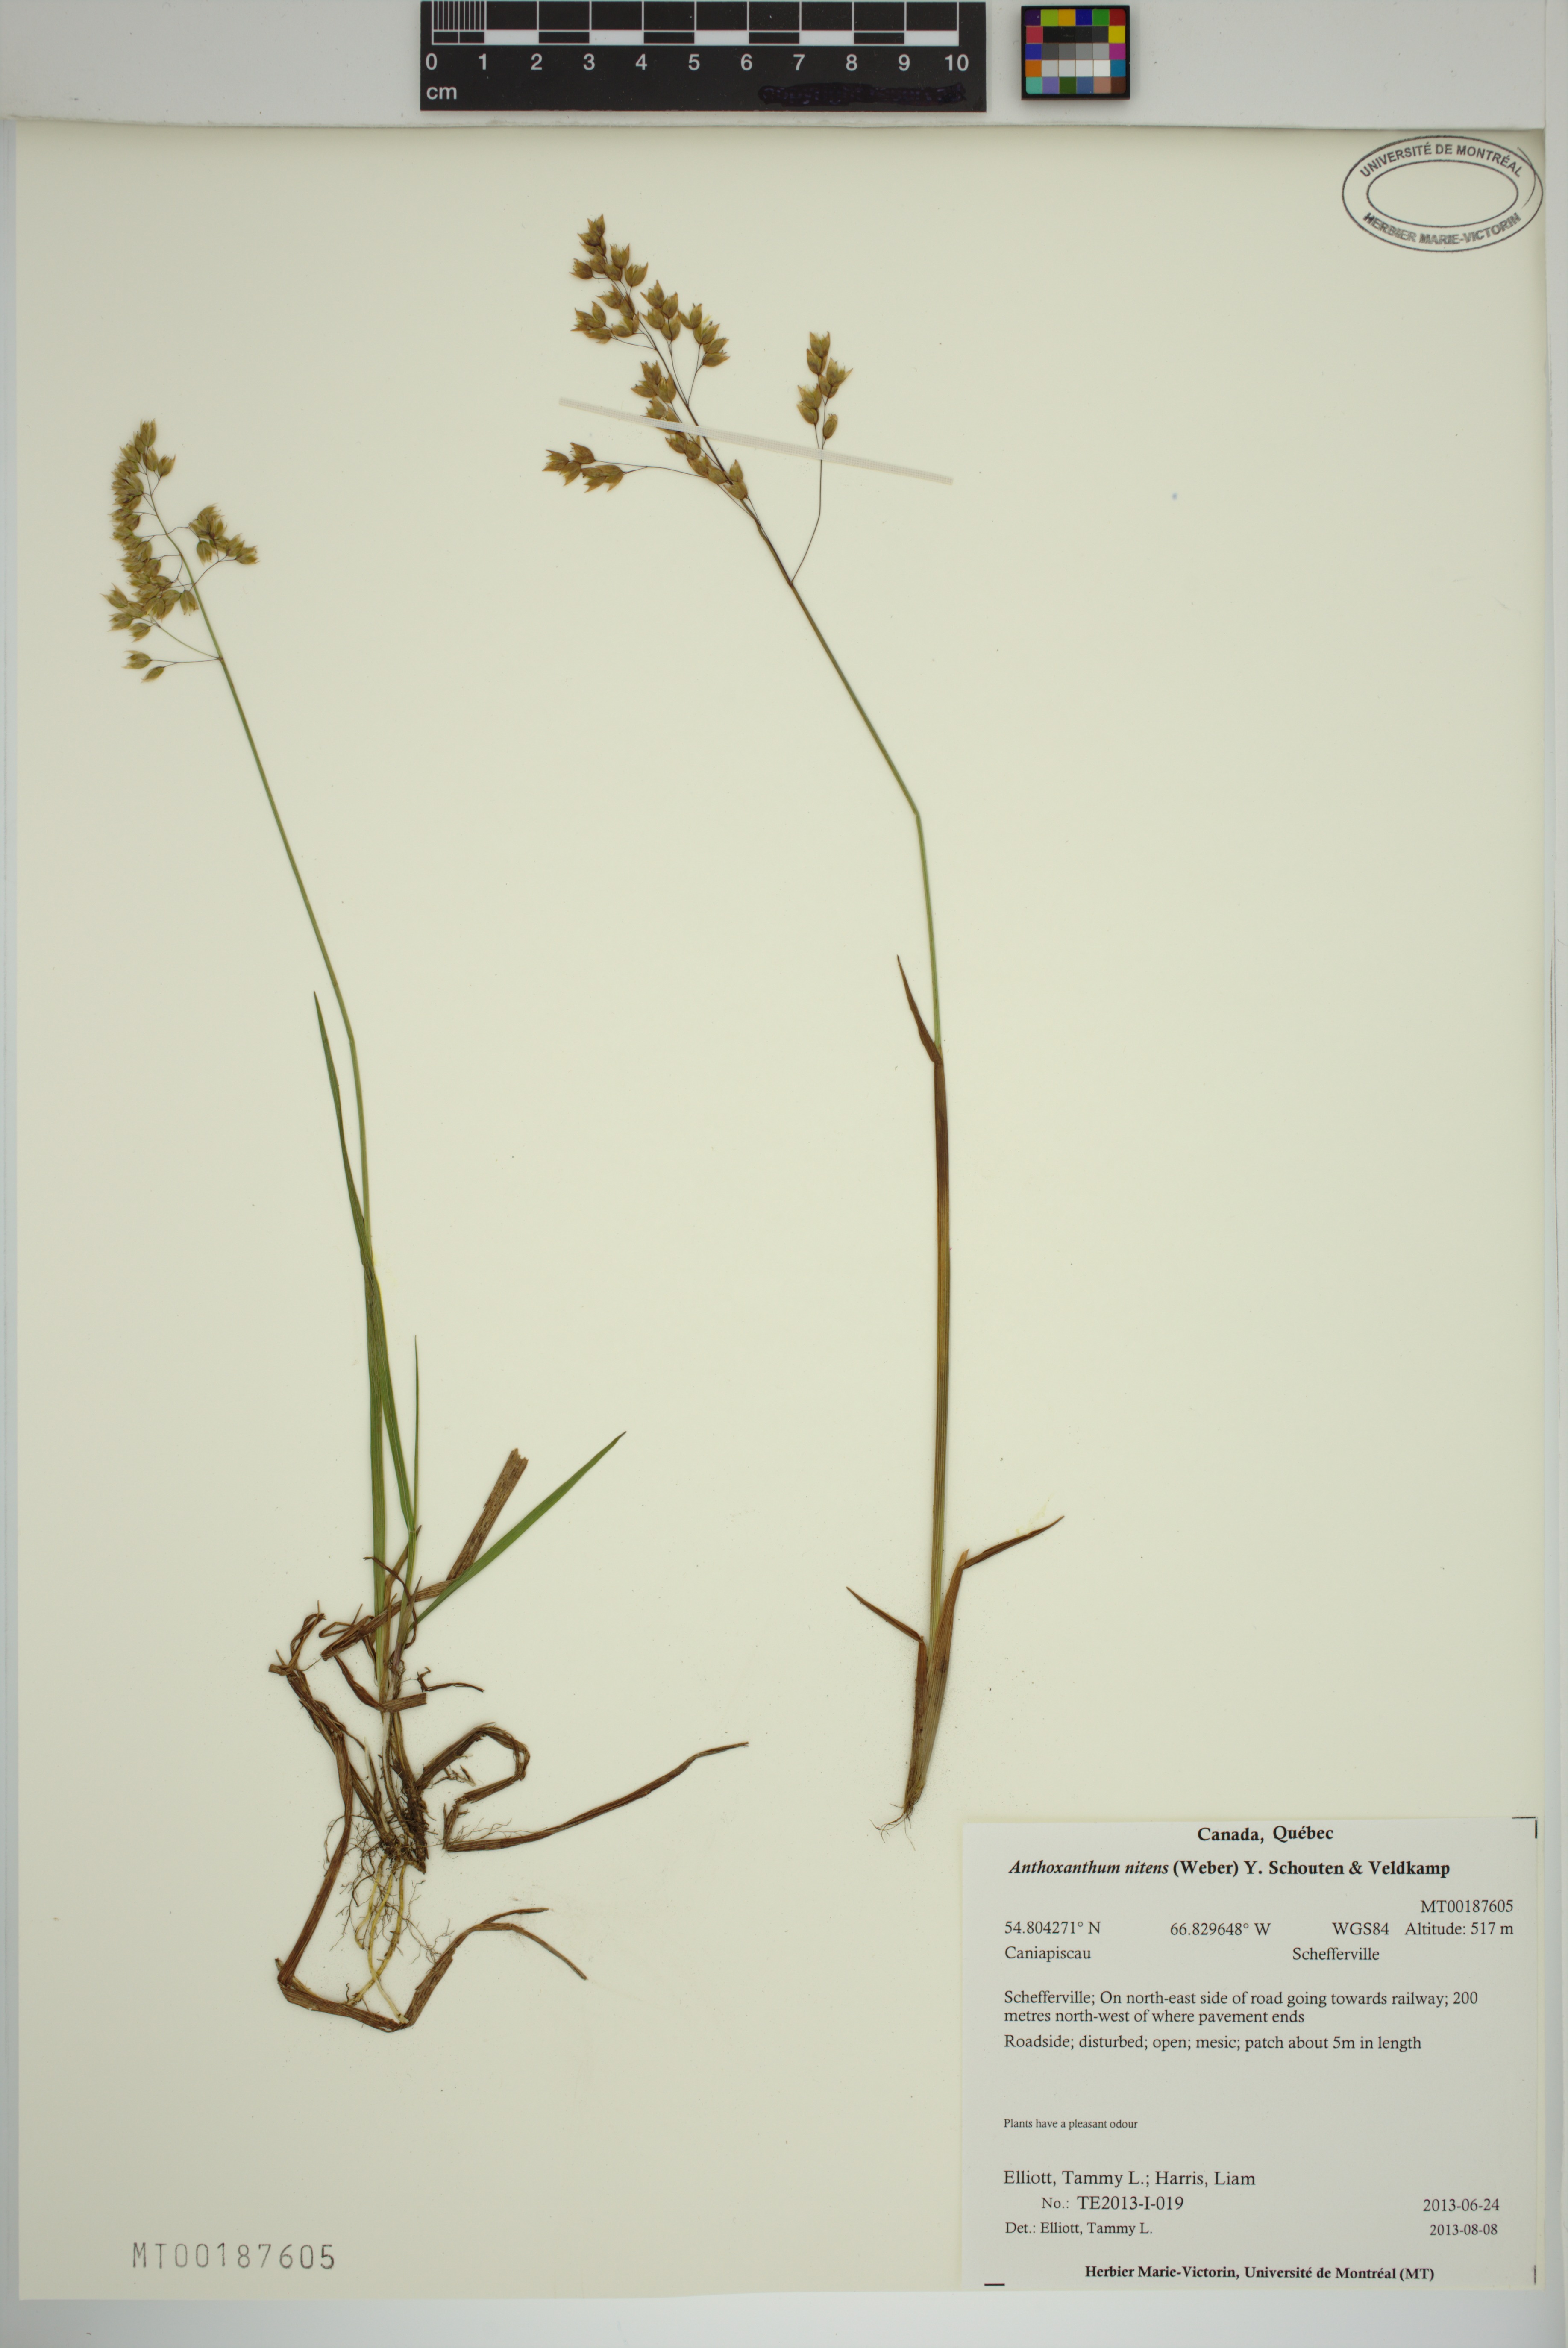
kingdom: Plantae
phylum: Tracheophyta
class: Liliopsida
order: Poales
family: Poaceae
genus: Anthoxanthum
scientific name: Anthoxanthum nitens
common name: Holy grass
